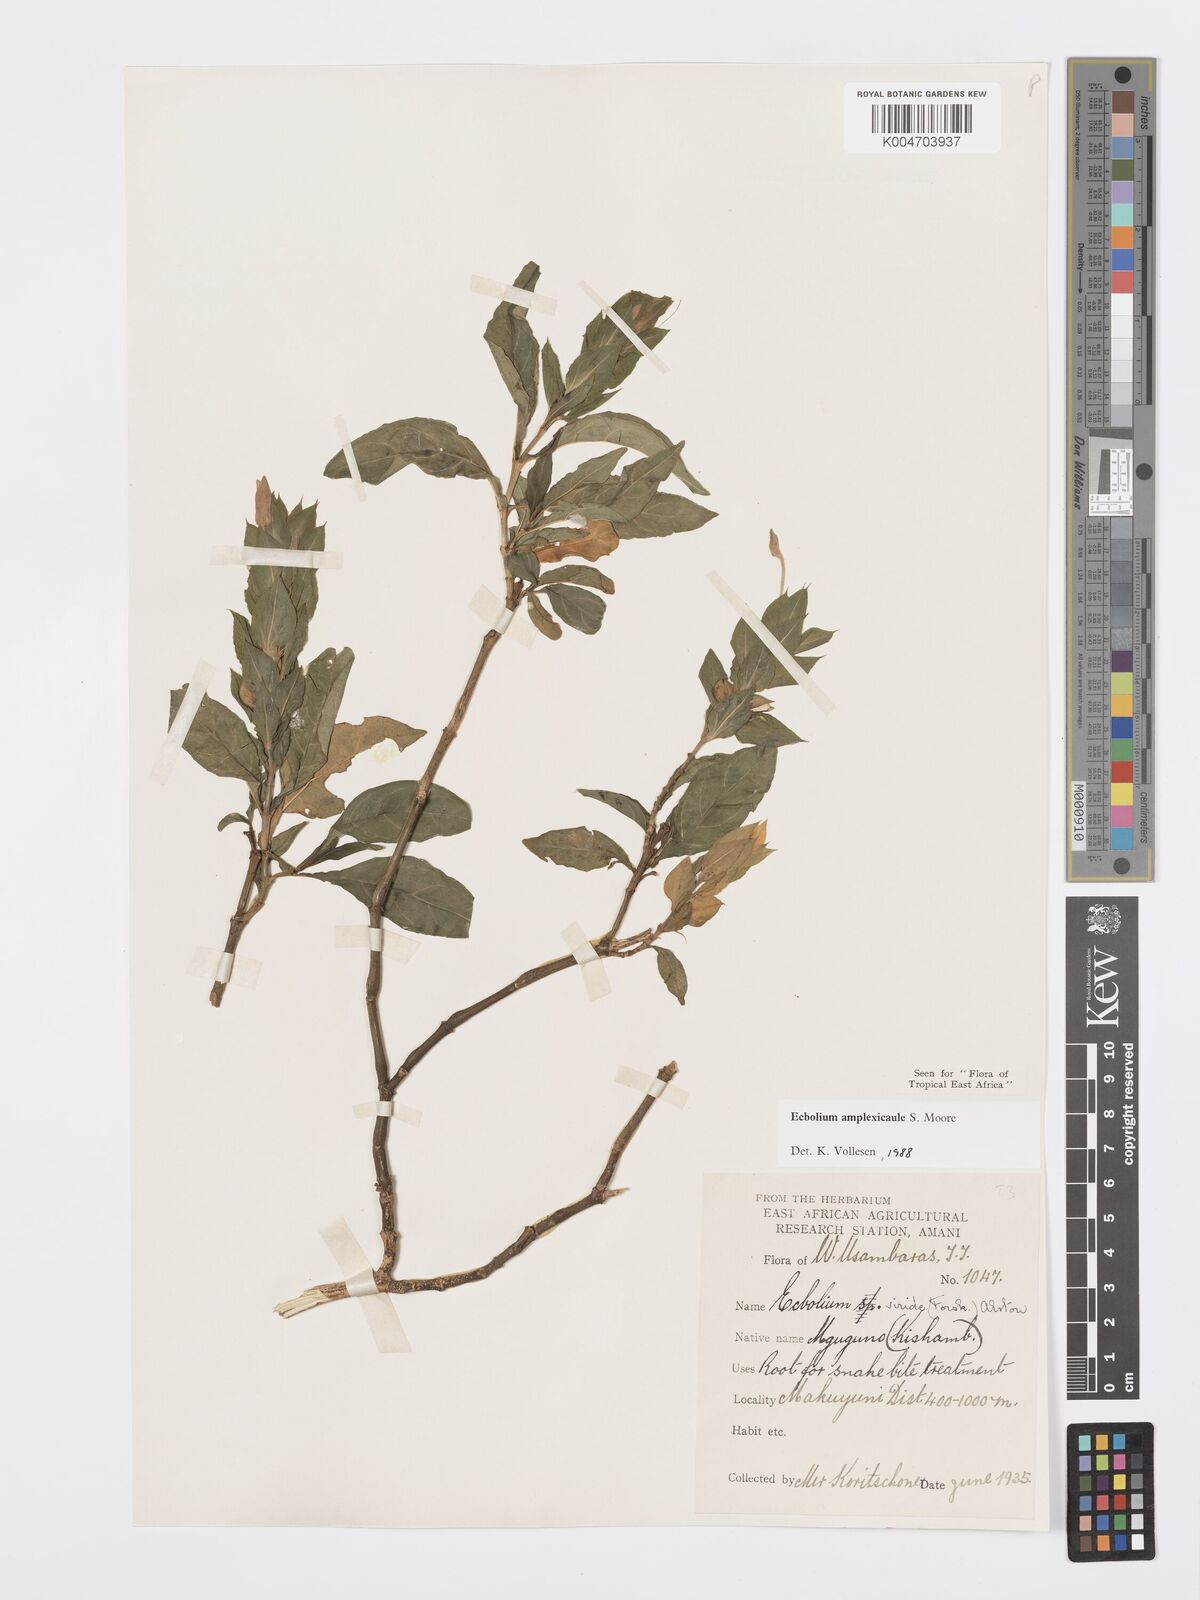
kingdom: Plantae
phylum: Tracheophyta
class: Magnoliopsida
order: Lamiales
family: Acanthaceae
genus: Ecbolium
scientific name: Ecbolium amplexicaule
